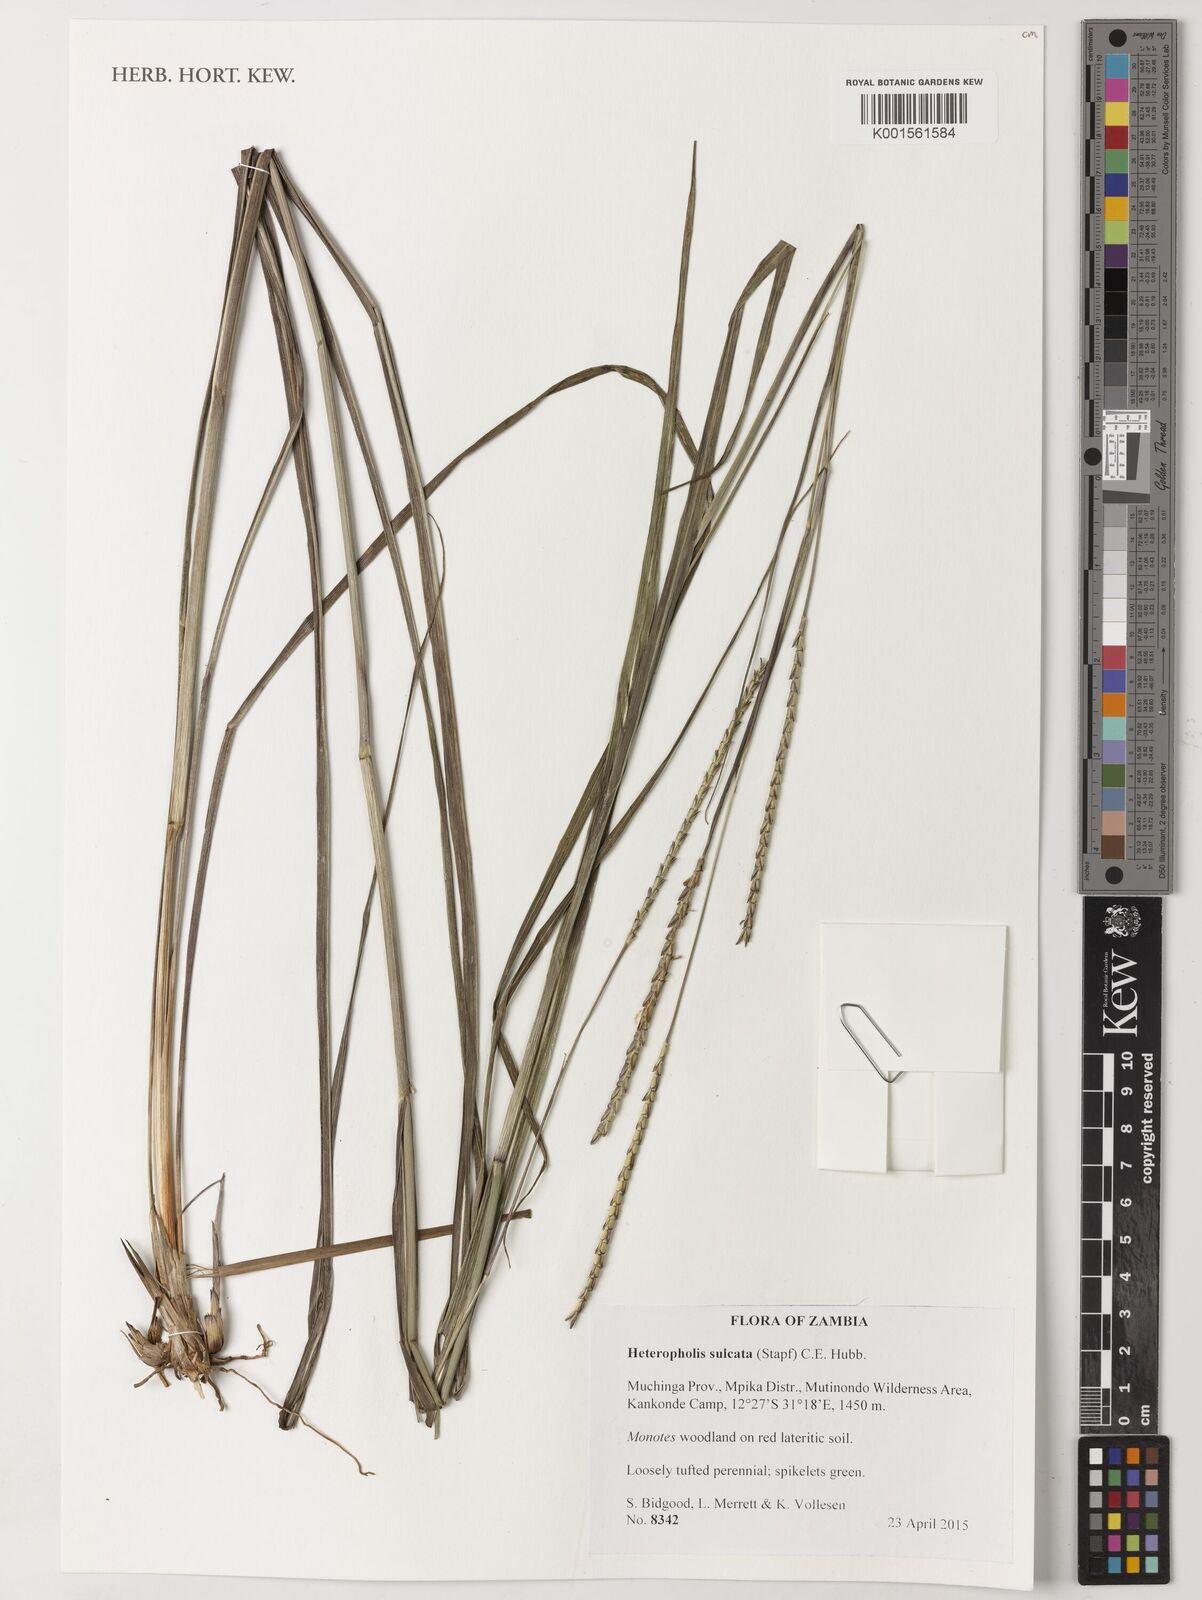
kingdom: Plantae
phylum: Tracheophyta
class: Liliopsida
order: Poales
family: Poaceae
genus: Heteropholis
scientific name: Heteropholis sulcata
